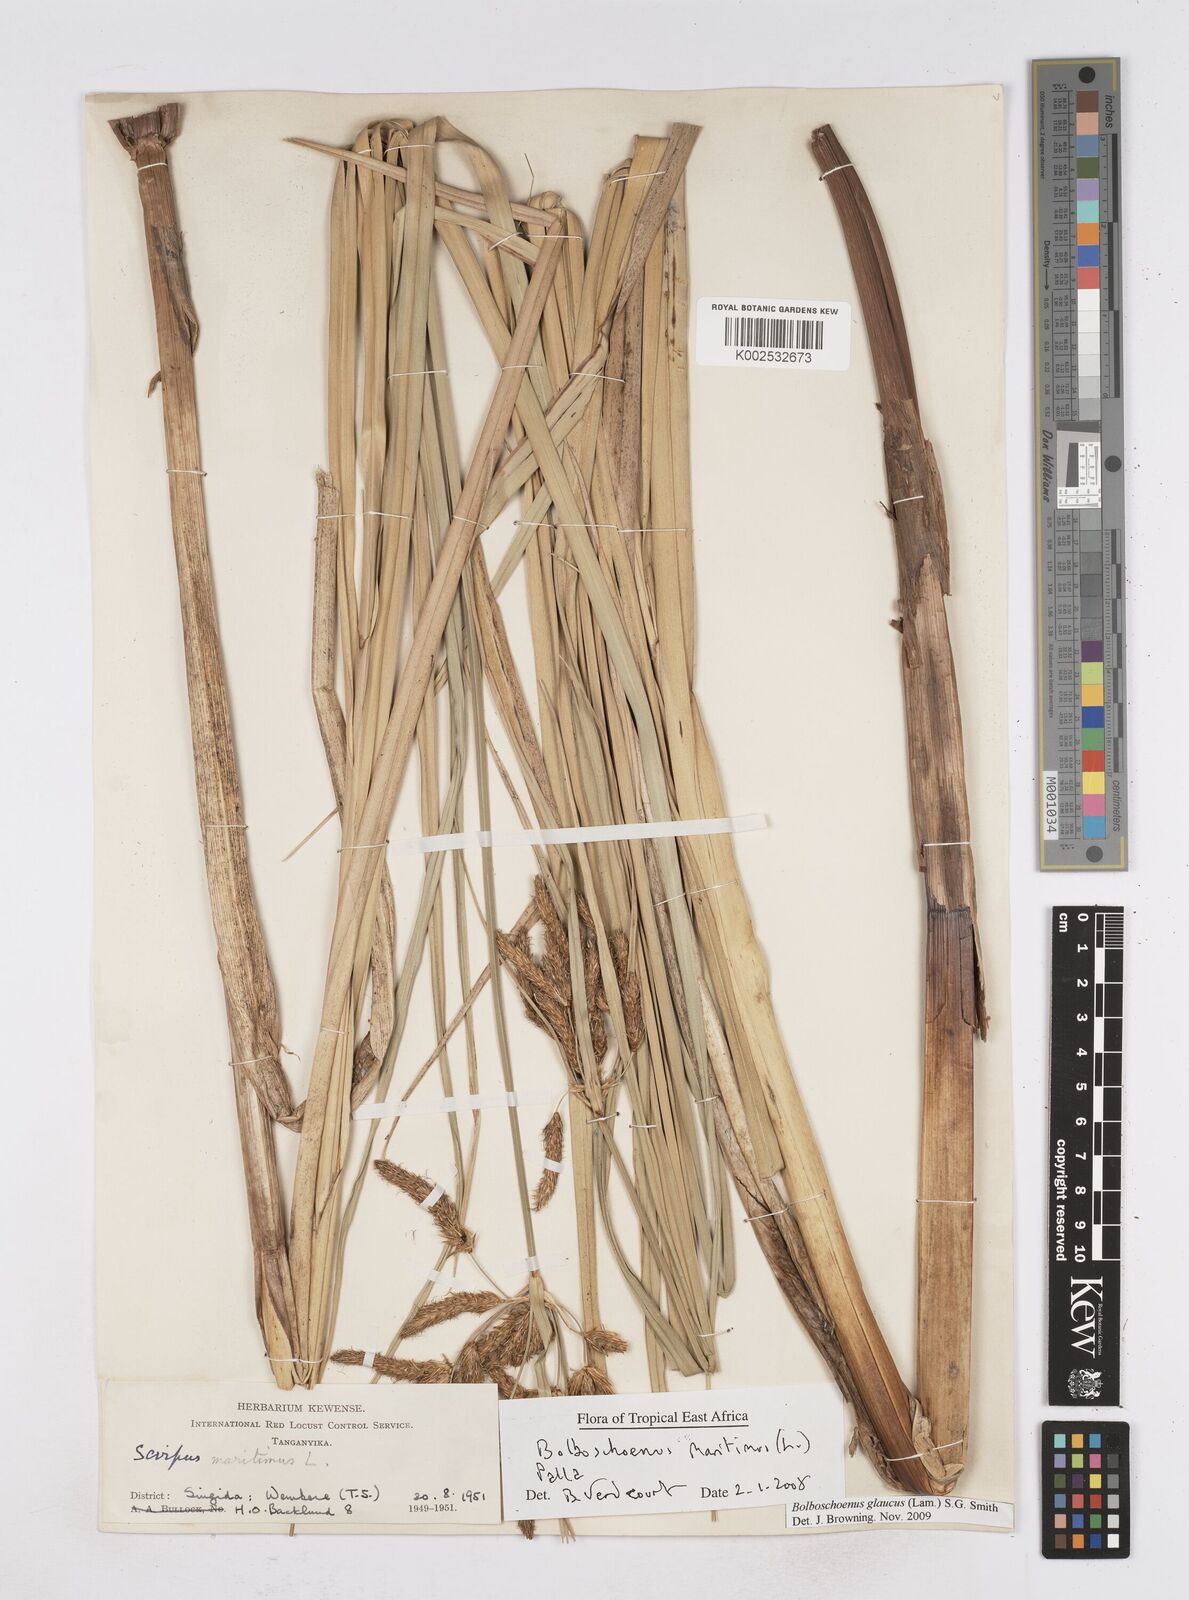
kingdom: Plantae
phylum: Tracheophyta
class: Liliopsida
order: Poales
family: Cyperaceae
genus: Bolboschoenus
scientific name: Bolboschoenus glaucus
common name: Tuberous bulrush
